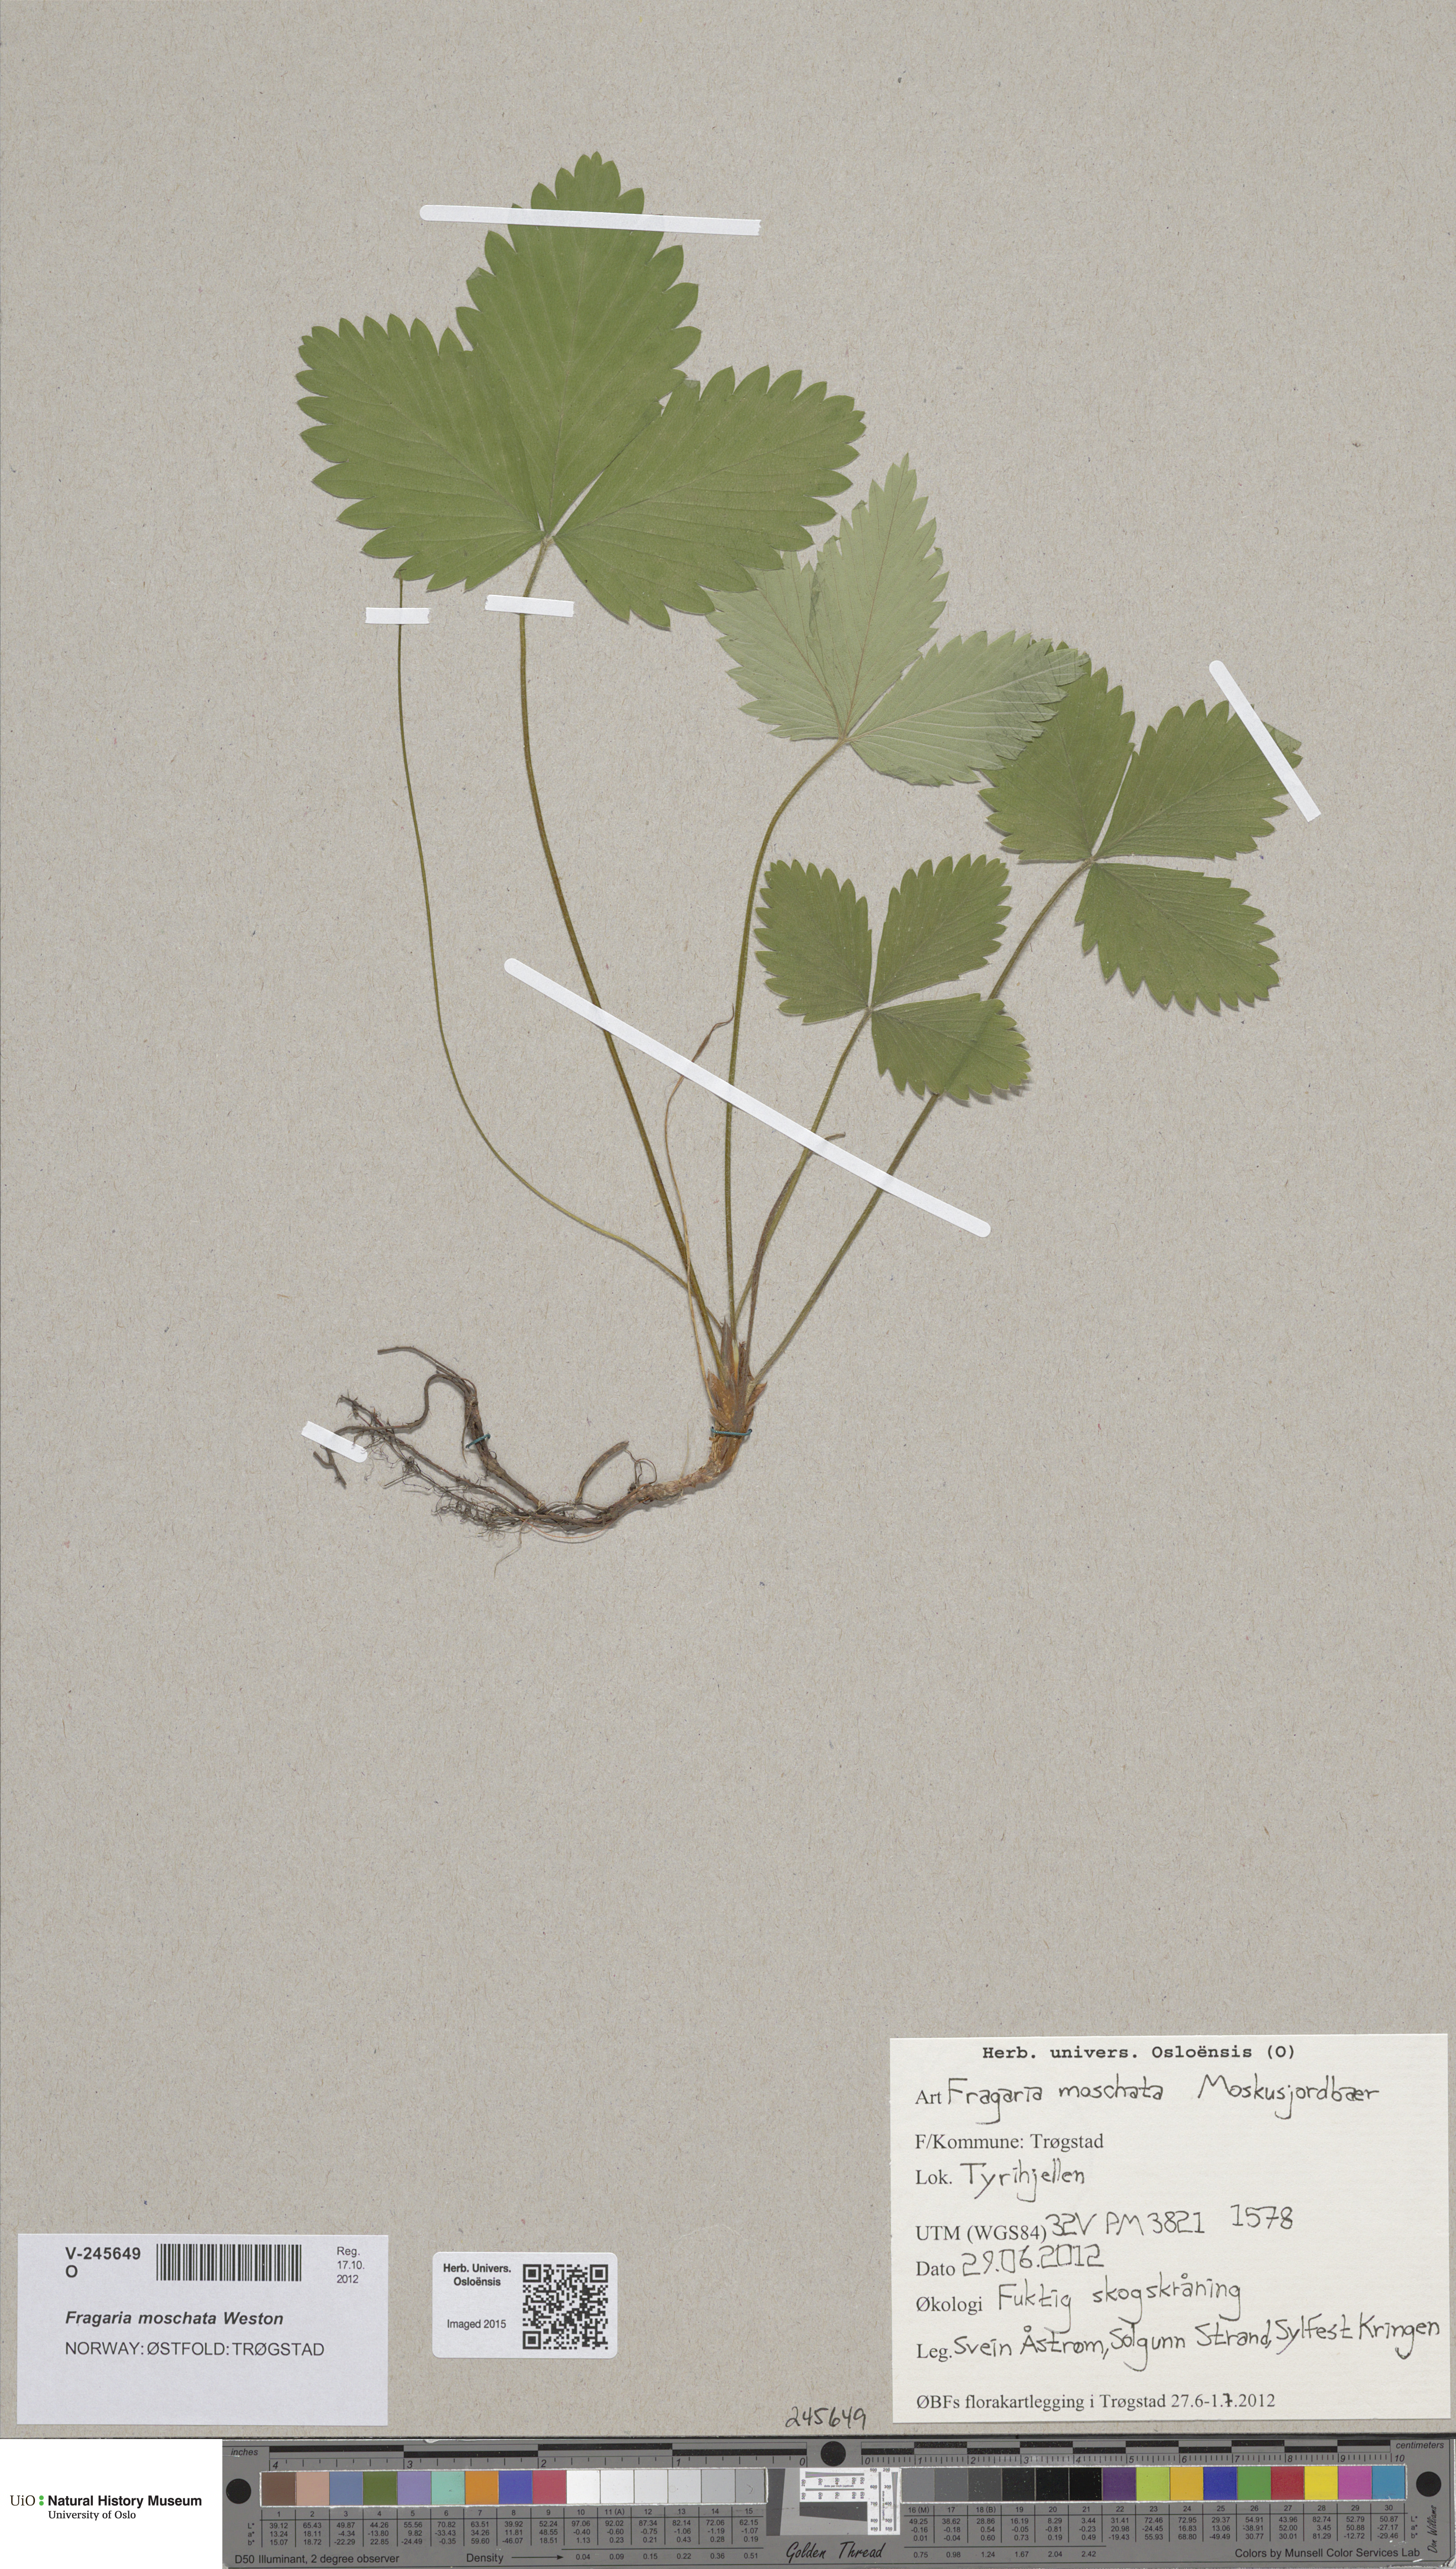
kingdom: Plantae
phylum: Tracheophyta
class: Magnoliopsida
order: Rosales
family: Rosaceae
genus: Fragaria
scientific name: Fragaria moschata
